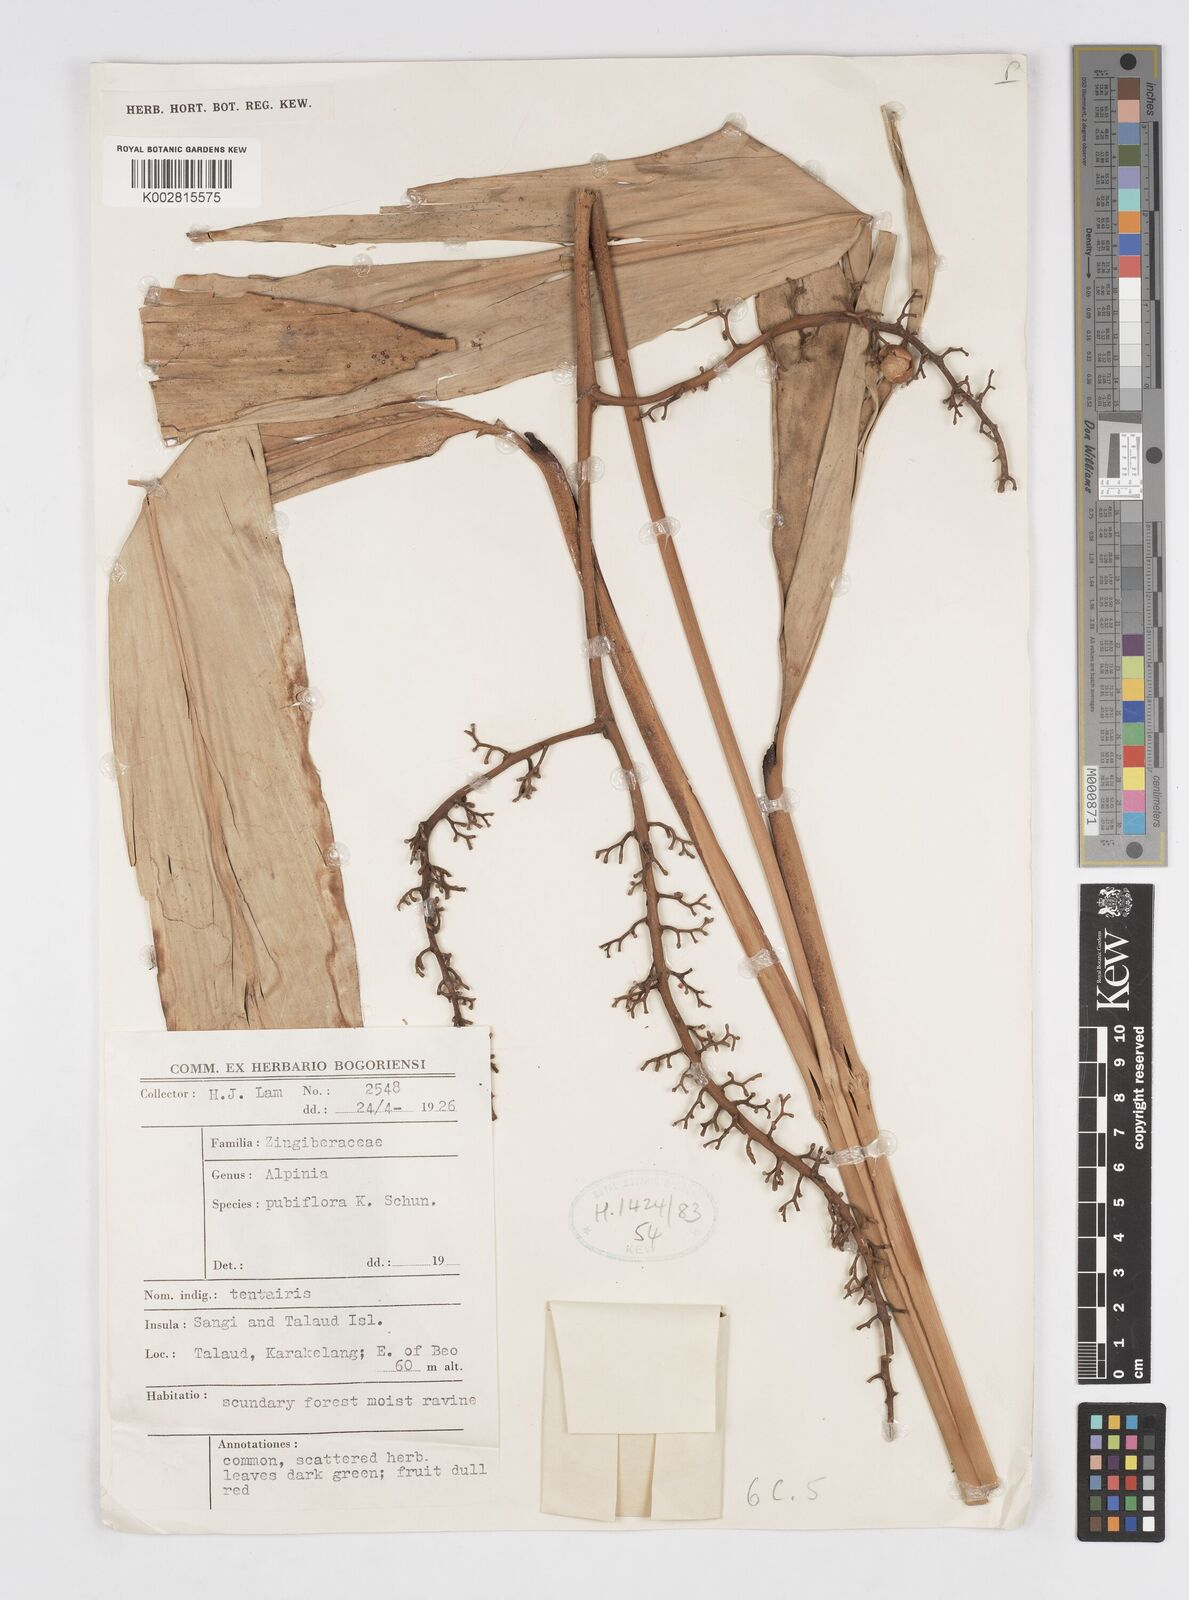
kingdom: Plantae
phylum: Tracheophyta
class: Liliopsida
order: Zingiberales
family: Zingiberaceae
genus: Alpinia
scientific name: Alpinia pubiflora
